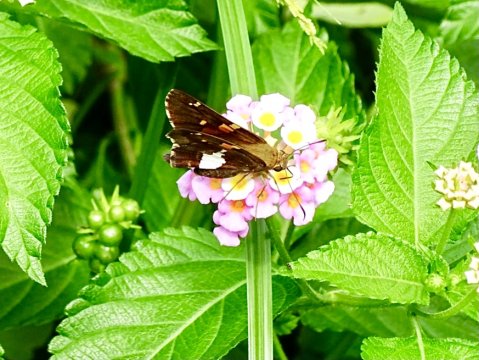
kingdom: Animalia
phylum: Arthropoda
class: Insecta
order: Lepidoptera
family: Hesperiidae
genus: Epargyreus
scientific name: Epargyreus clarus
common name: Silver-spotted Skipper
